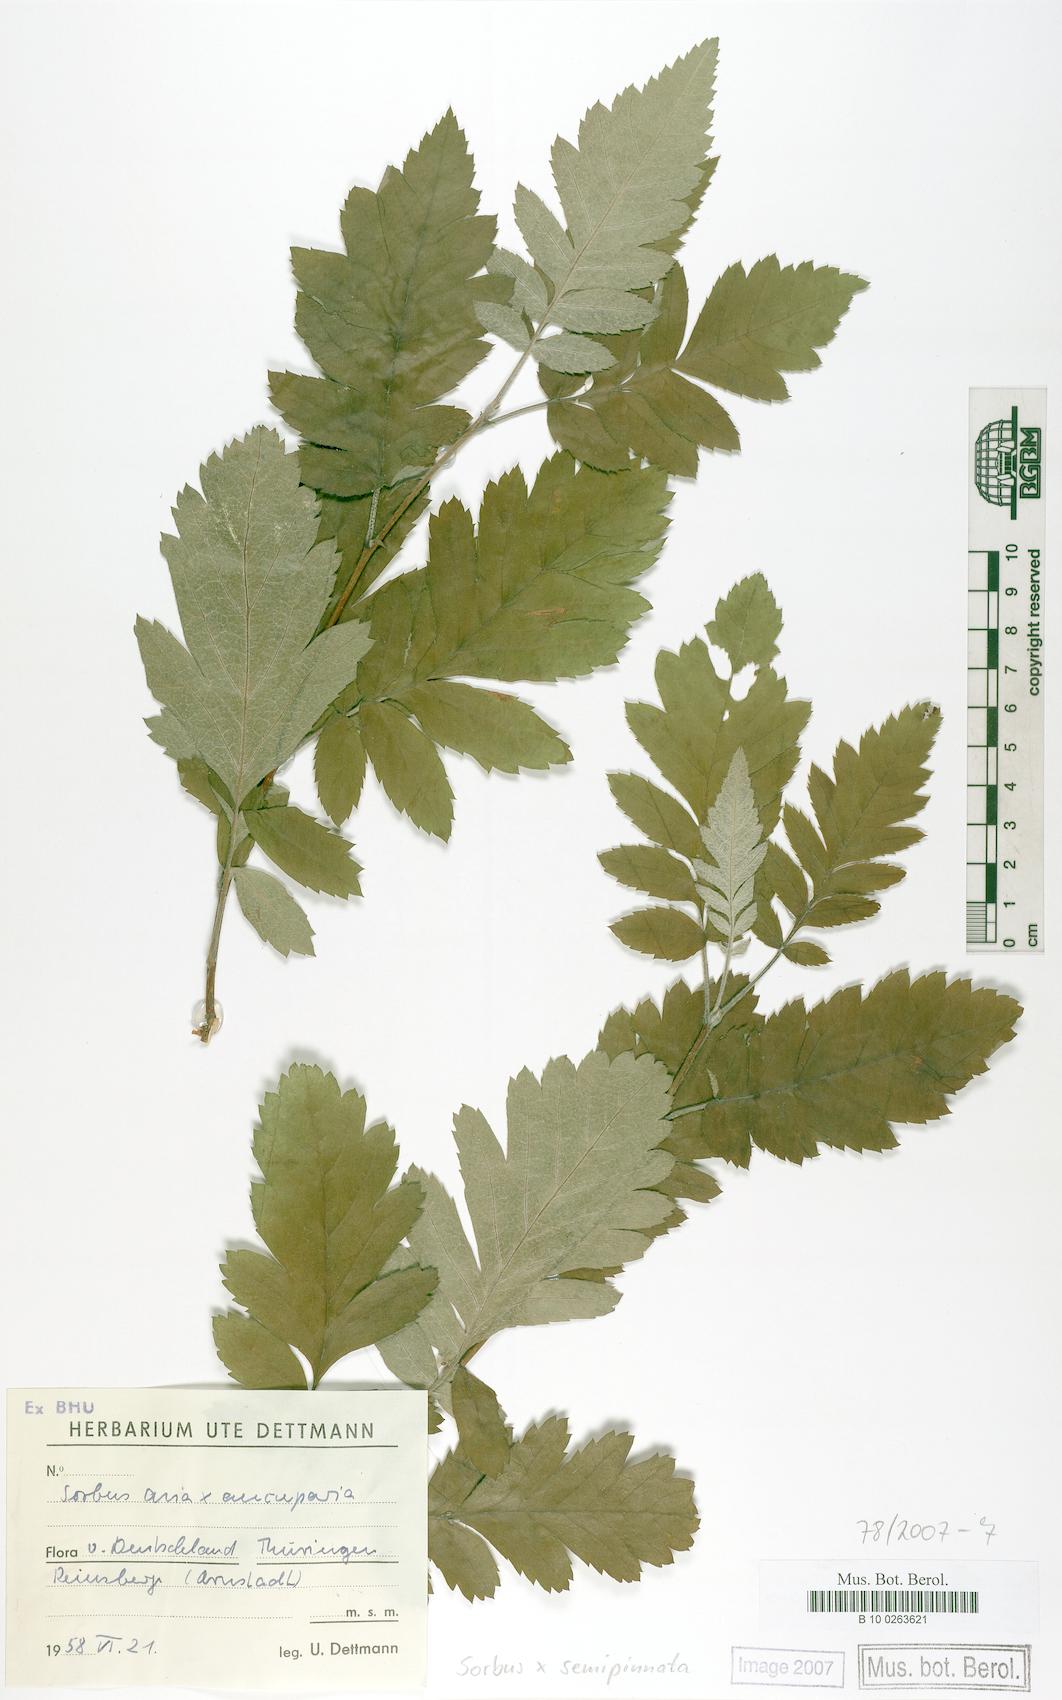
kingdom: Plantae
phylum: Tracheophyta
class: Magnoliopsida
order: Rosales
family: Rosaceae
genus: Hedlundia
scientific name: Hedlundia
